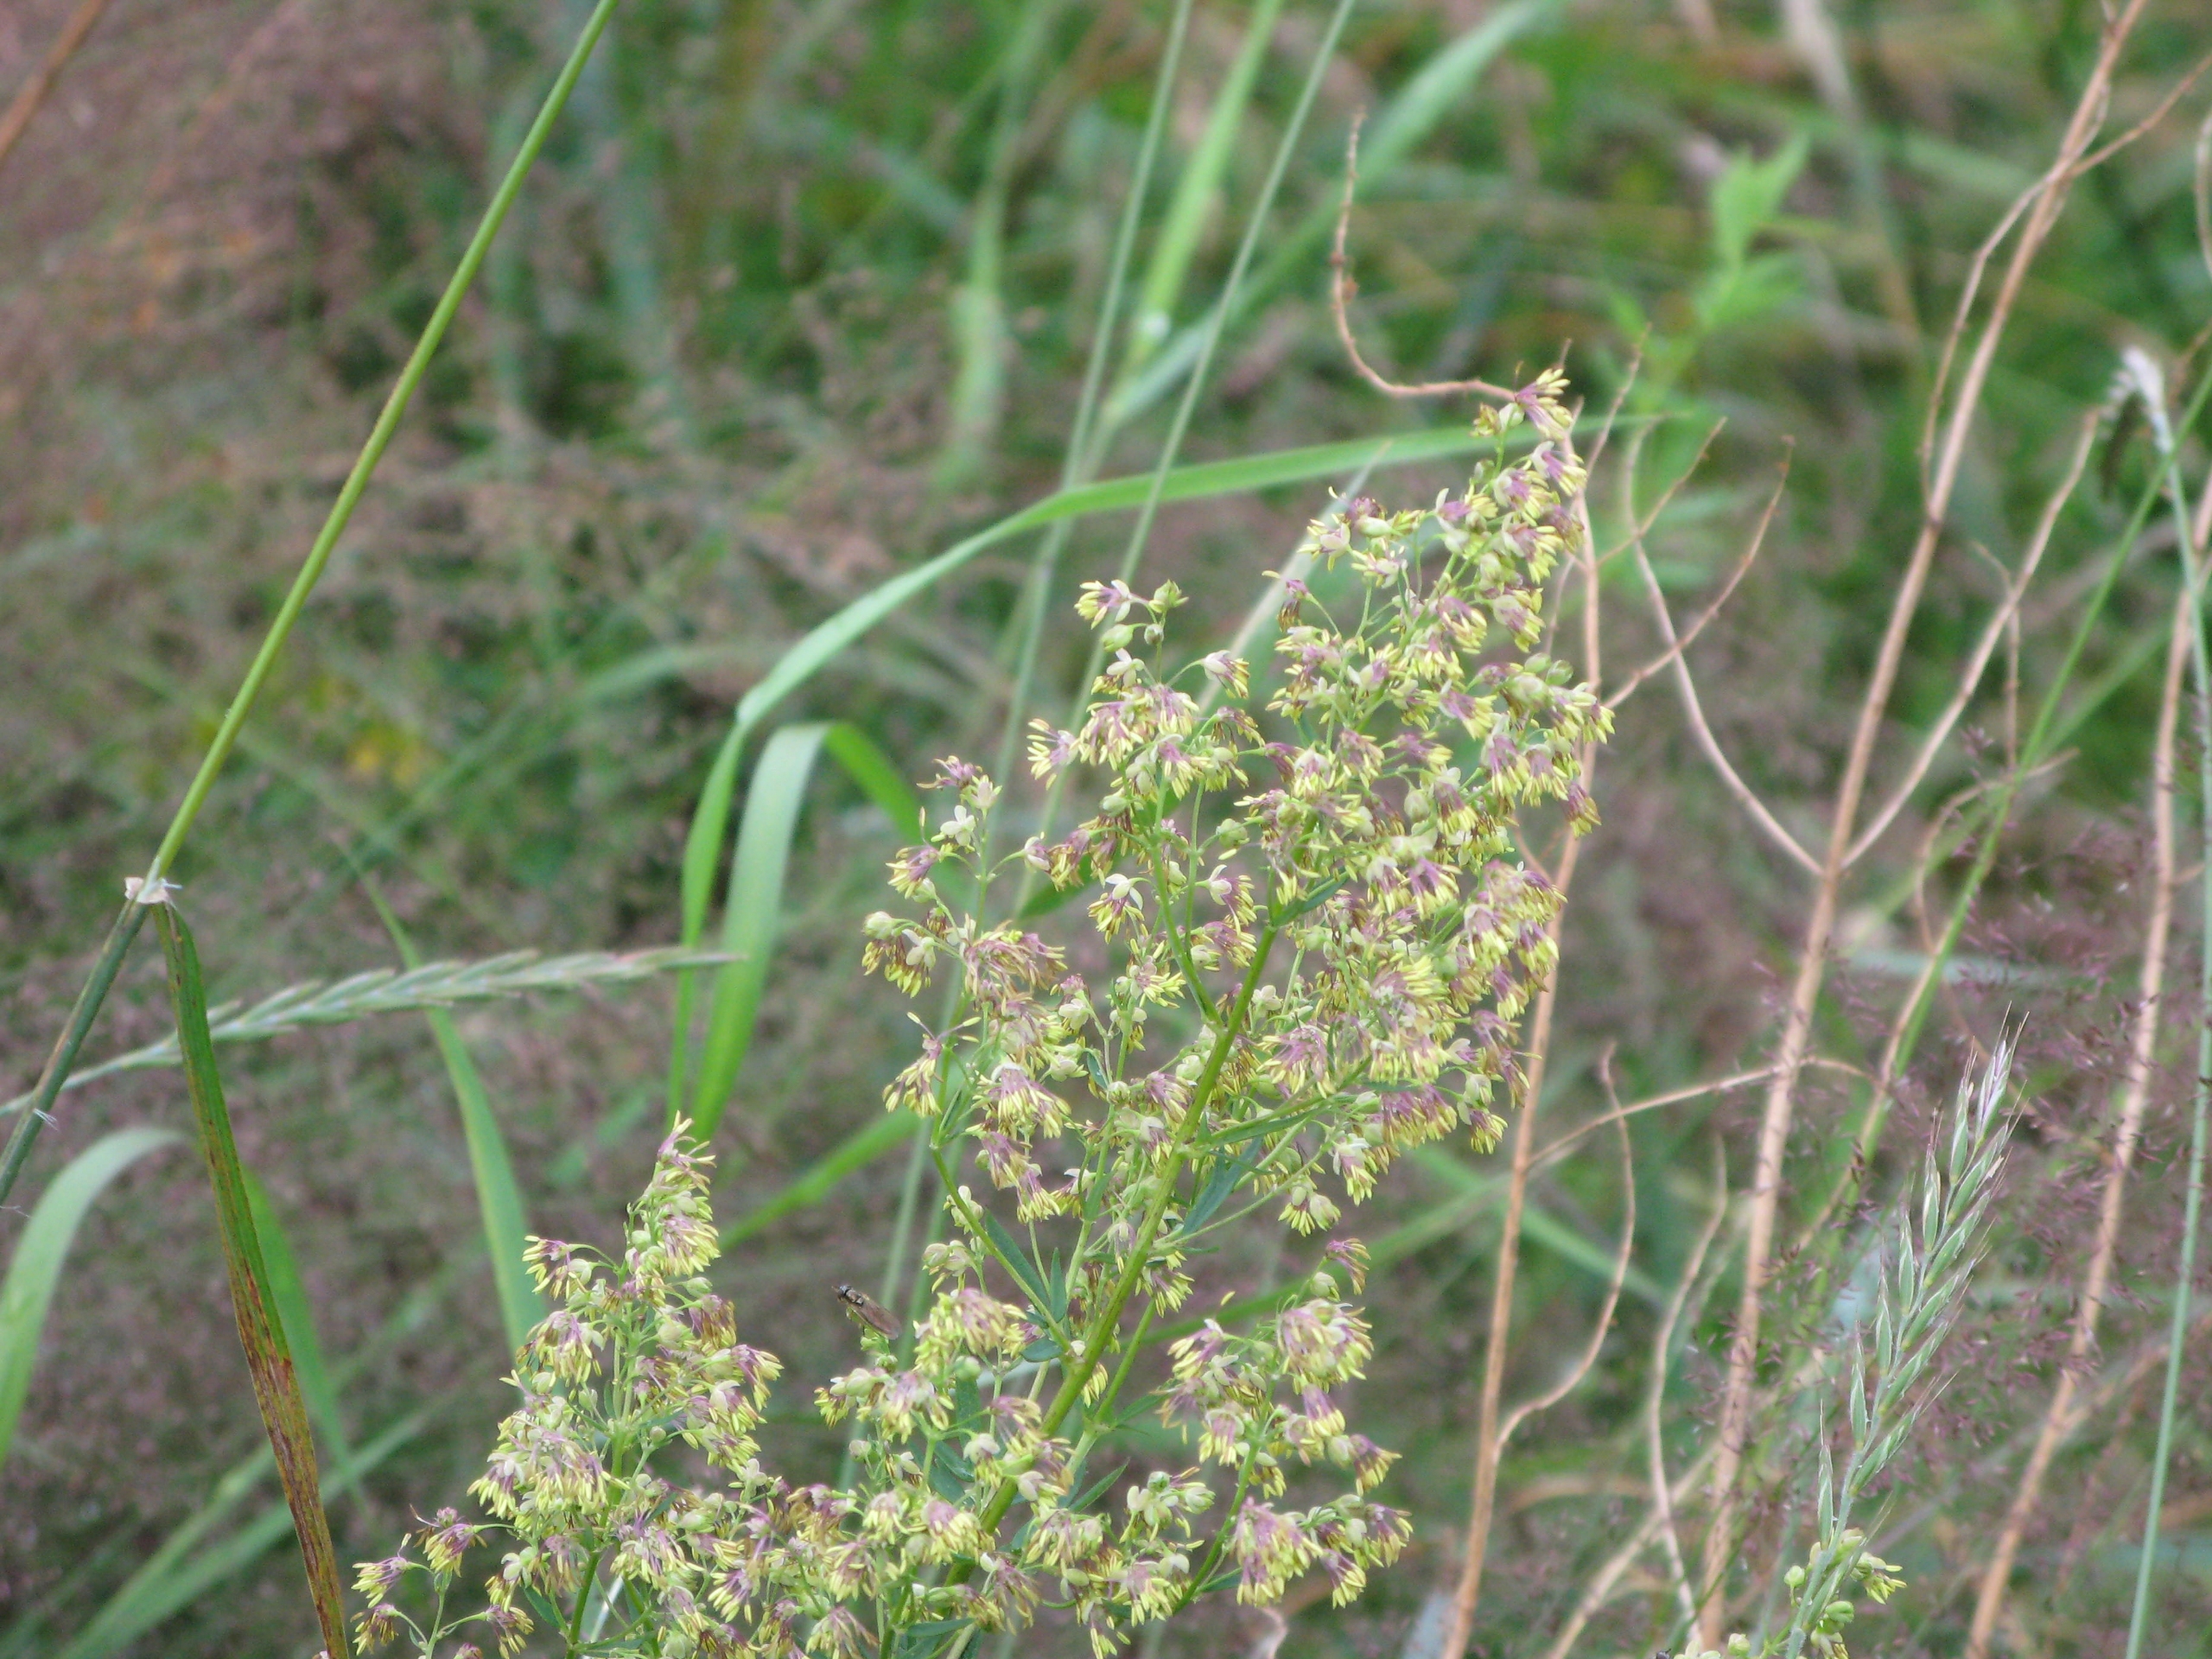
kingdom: Plantae
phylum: Tracheophyta
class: Magnoliopsida
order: Ranunculales
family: Ranunculaceae
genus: Thalictrum
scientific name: Thalictrum simplex
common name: Rank frøstjerne
